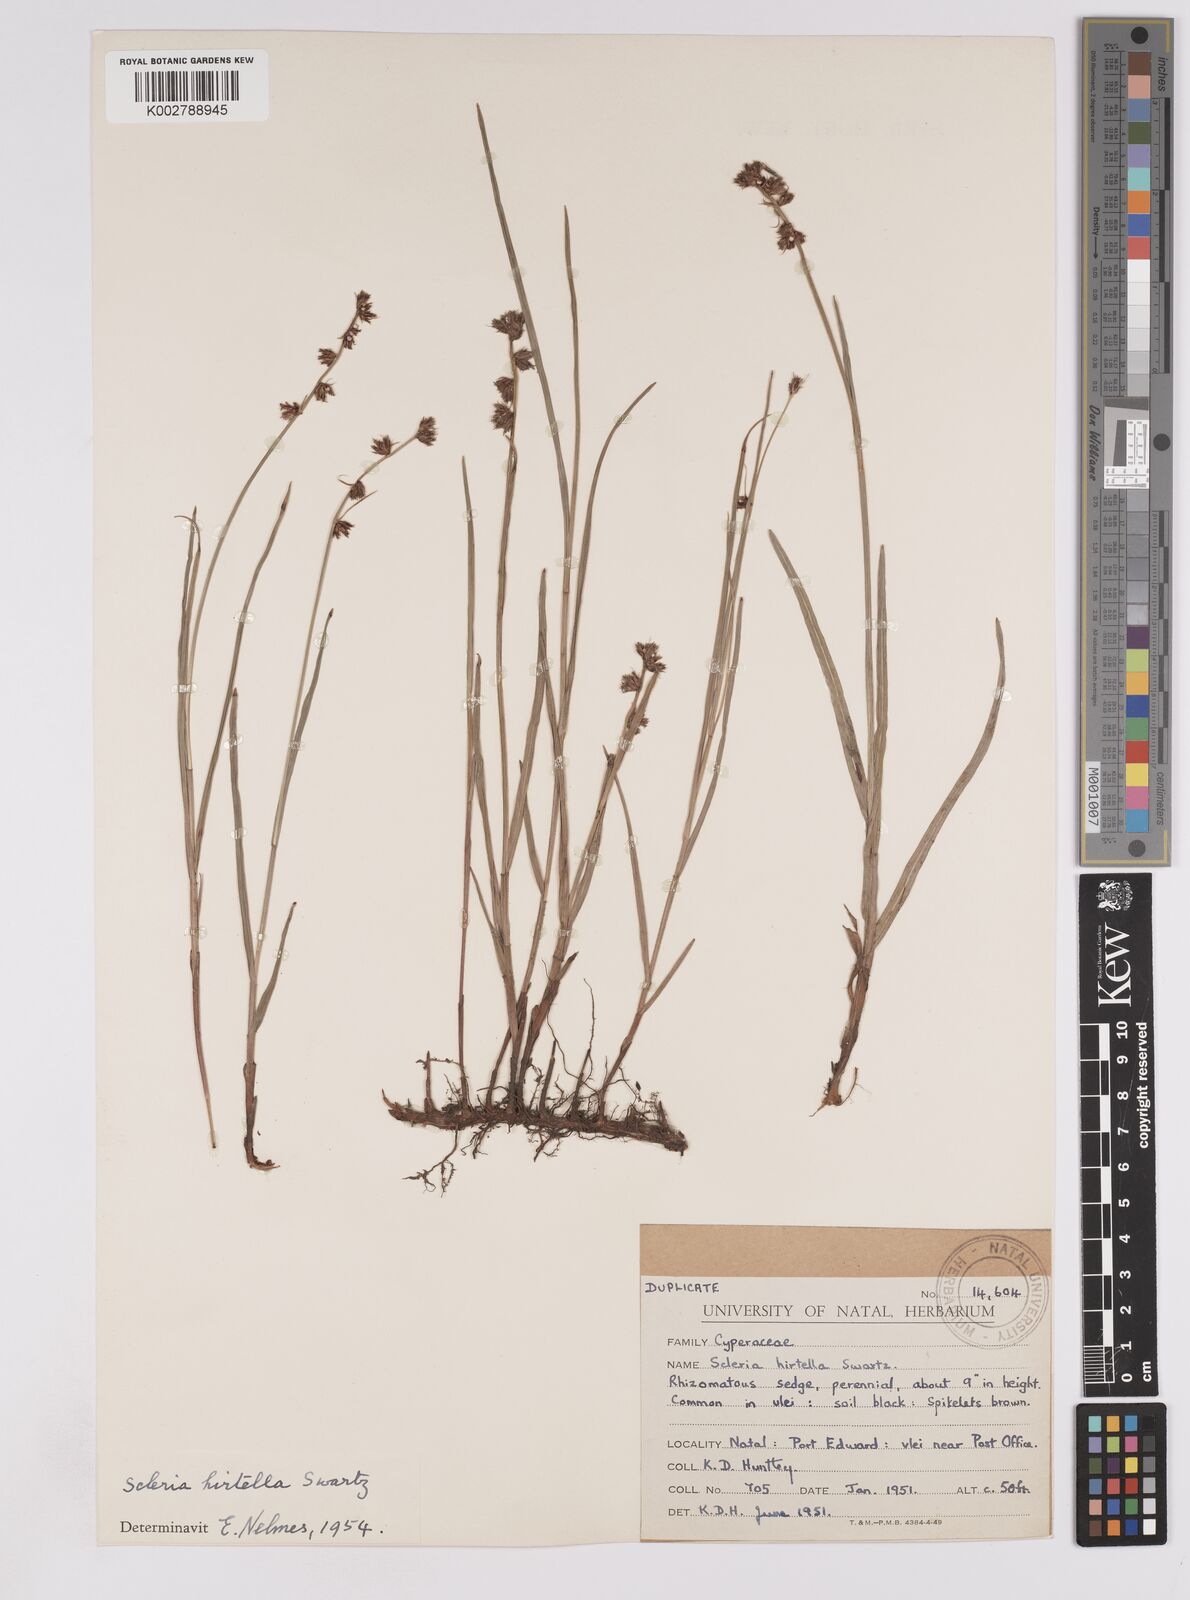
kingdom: Plantae
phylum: Tracheophyta
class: Liliopsida
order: Poales
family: Cyperaceae
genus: Scleria
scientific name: Scleria hirtella
